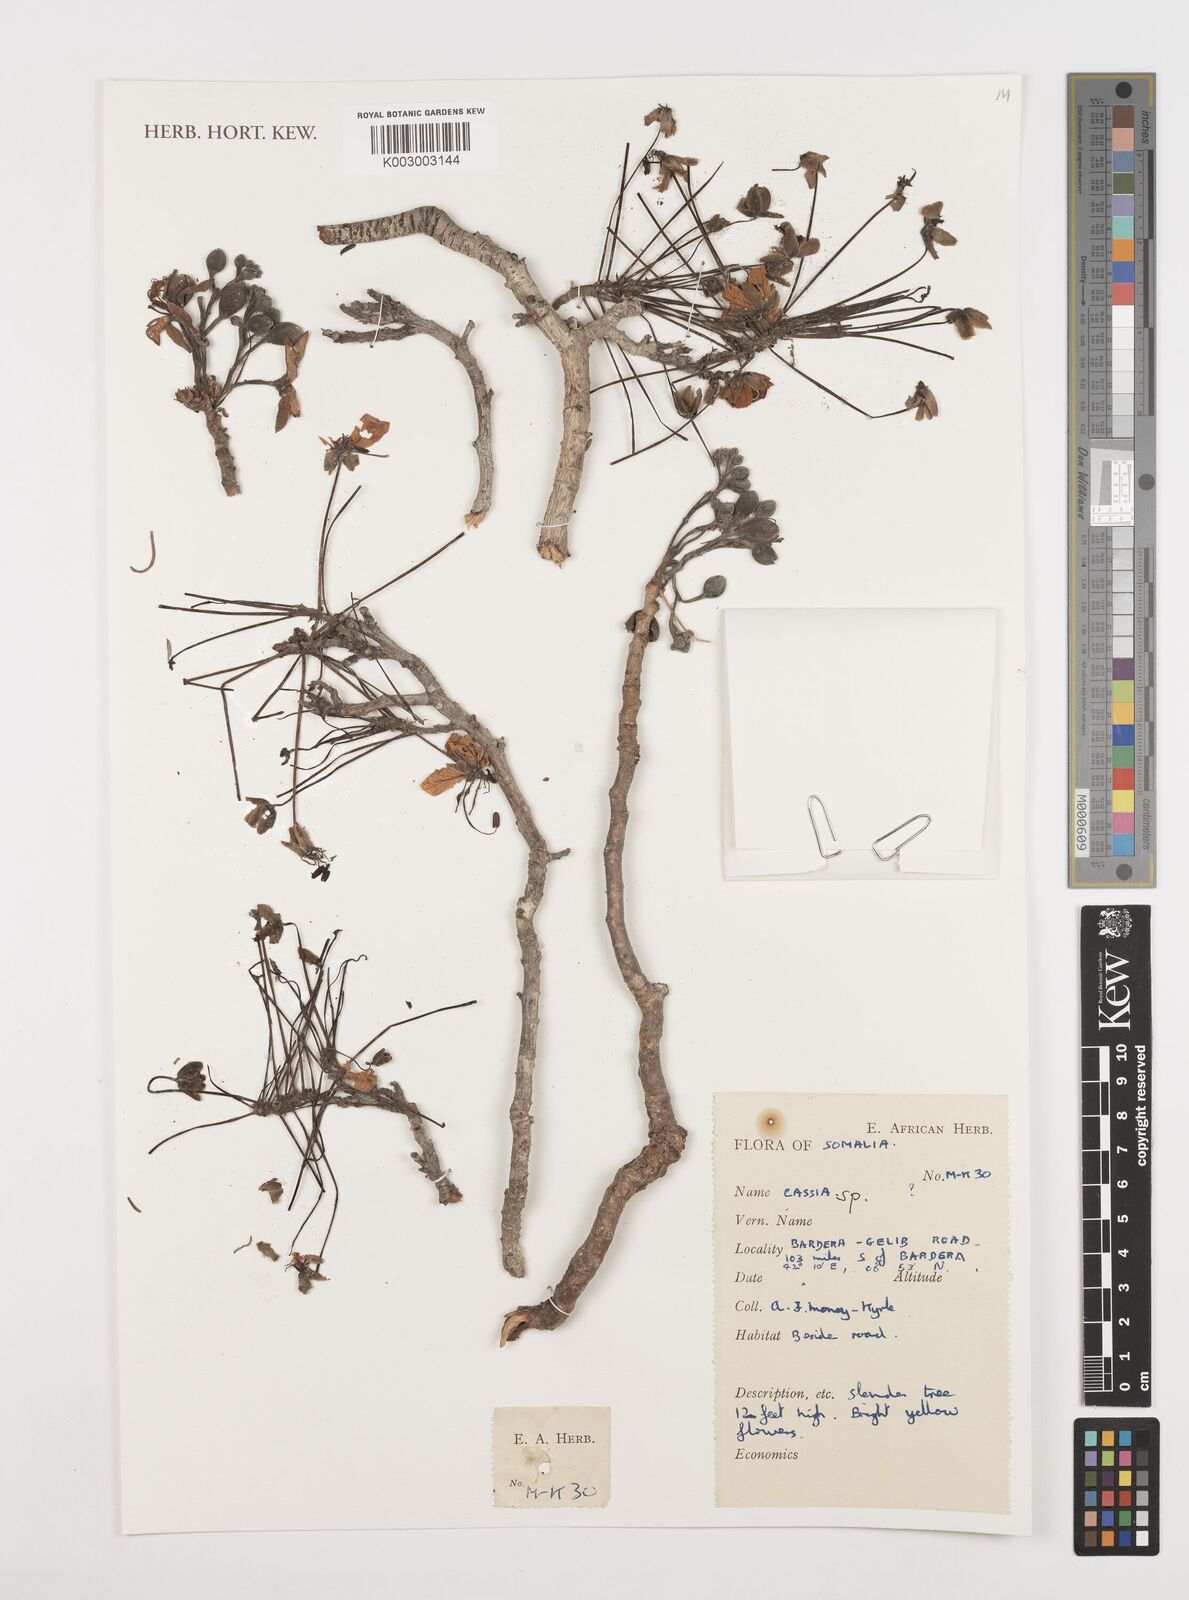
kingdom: Plantae
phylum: Tracheophyta
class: Magnoliopsida
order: Fabales
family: Fabaceae
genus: Cassia
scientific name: Cassia
